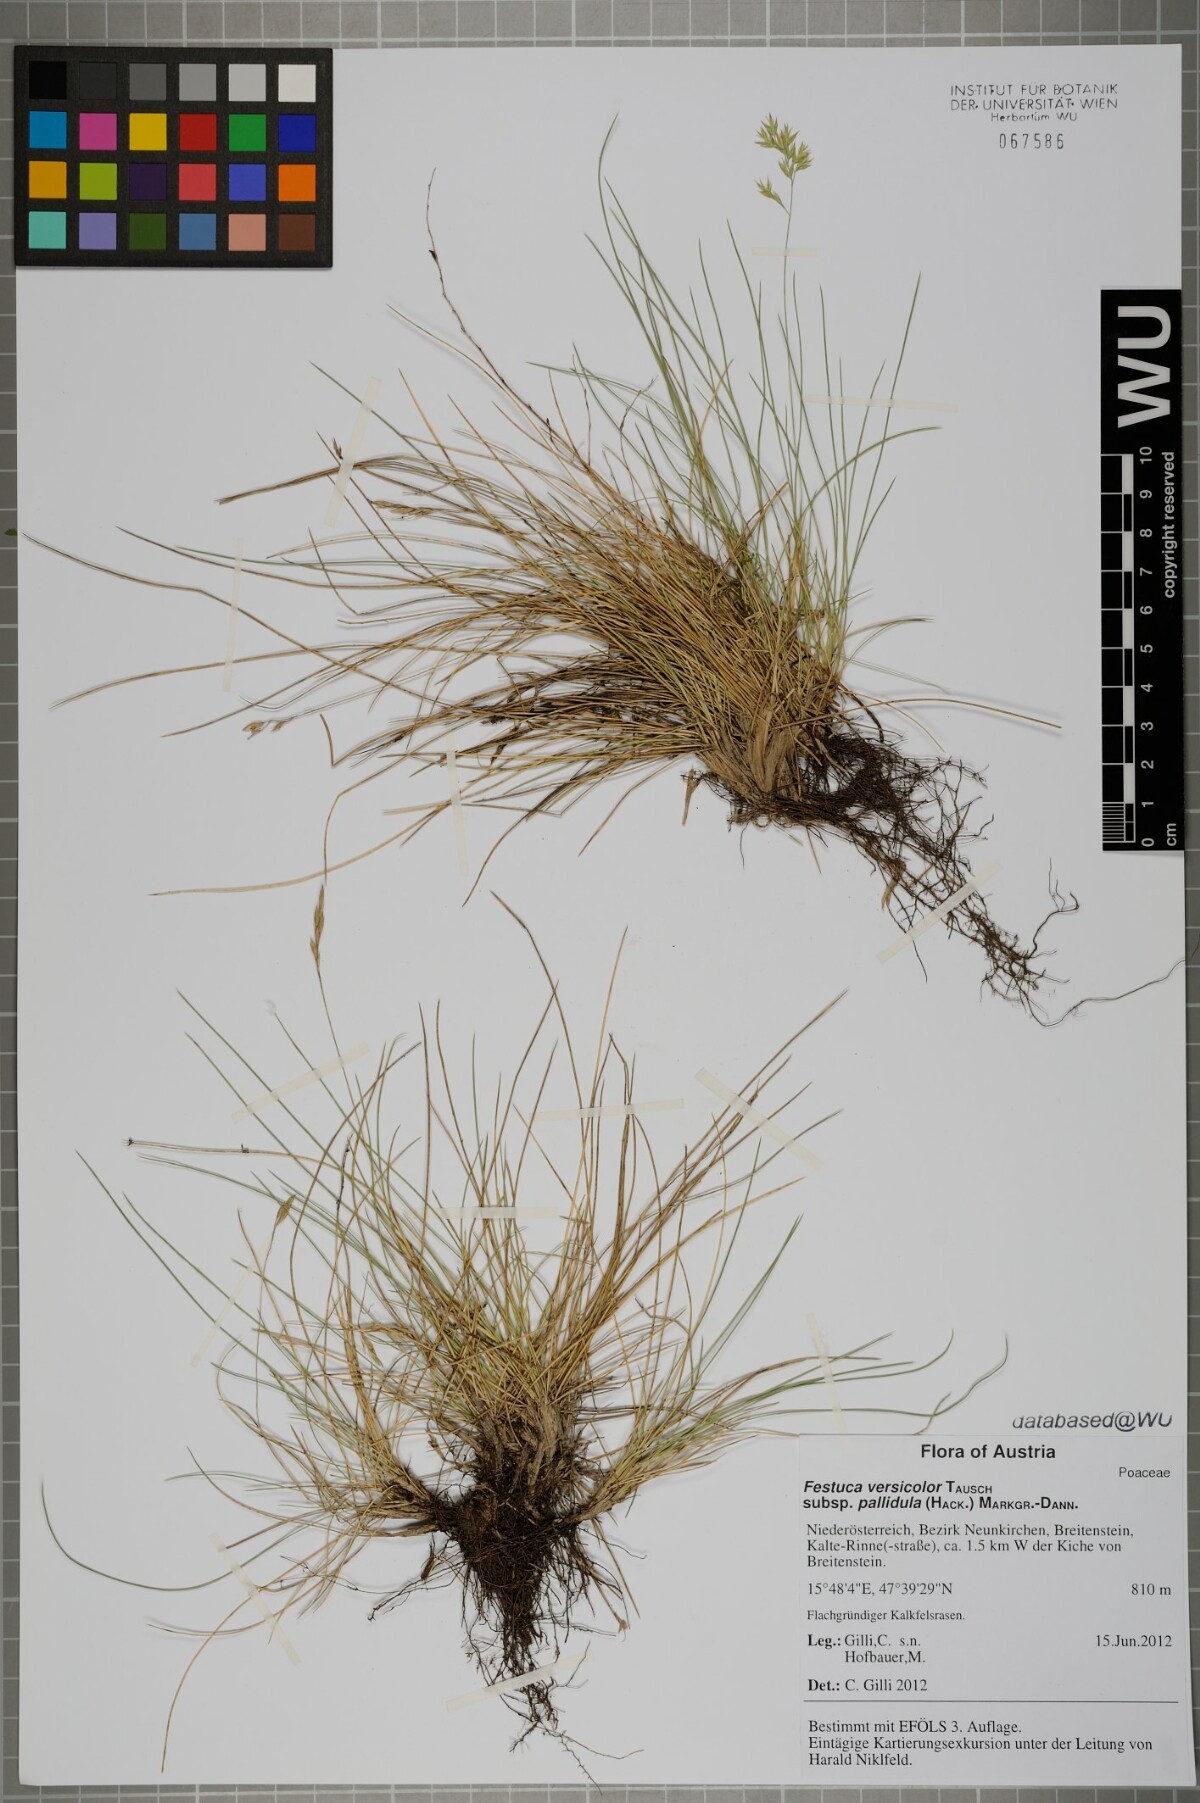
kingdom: Plantae
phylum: Tracheophyta
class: Liliopsida
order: Poales
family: Poaceae
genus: Festuca
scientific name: Festuca varia
